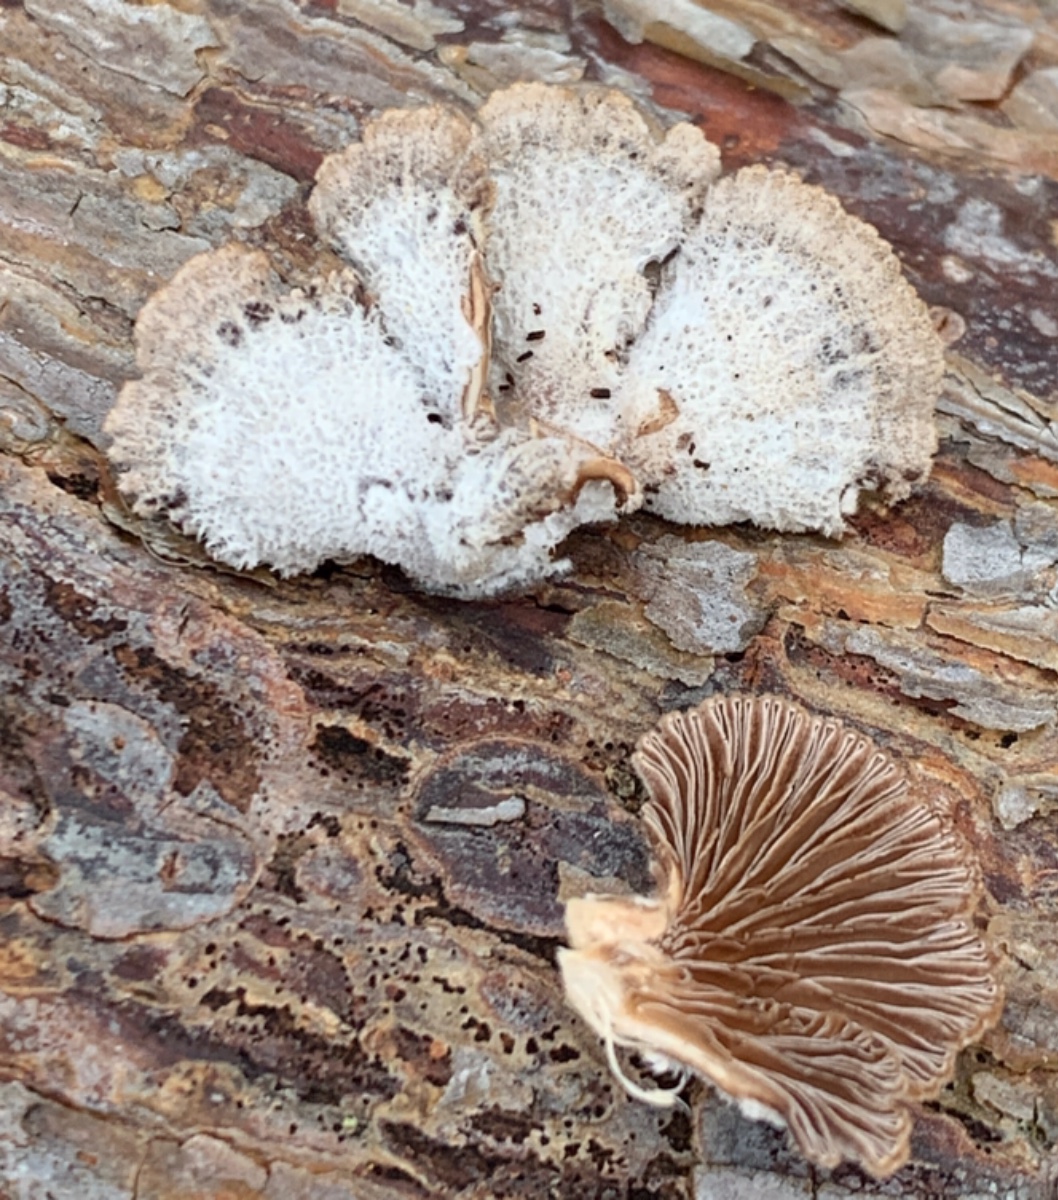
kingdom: Fungi
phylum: Basidiomycota
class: Agaricomycetes
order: Agaricales
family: Schizophyllaceae
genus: Schizophyllum
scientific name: Schizophyllum commune
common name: kløvblad
